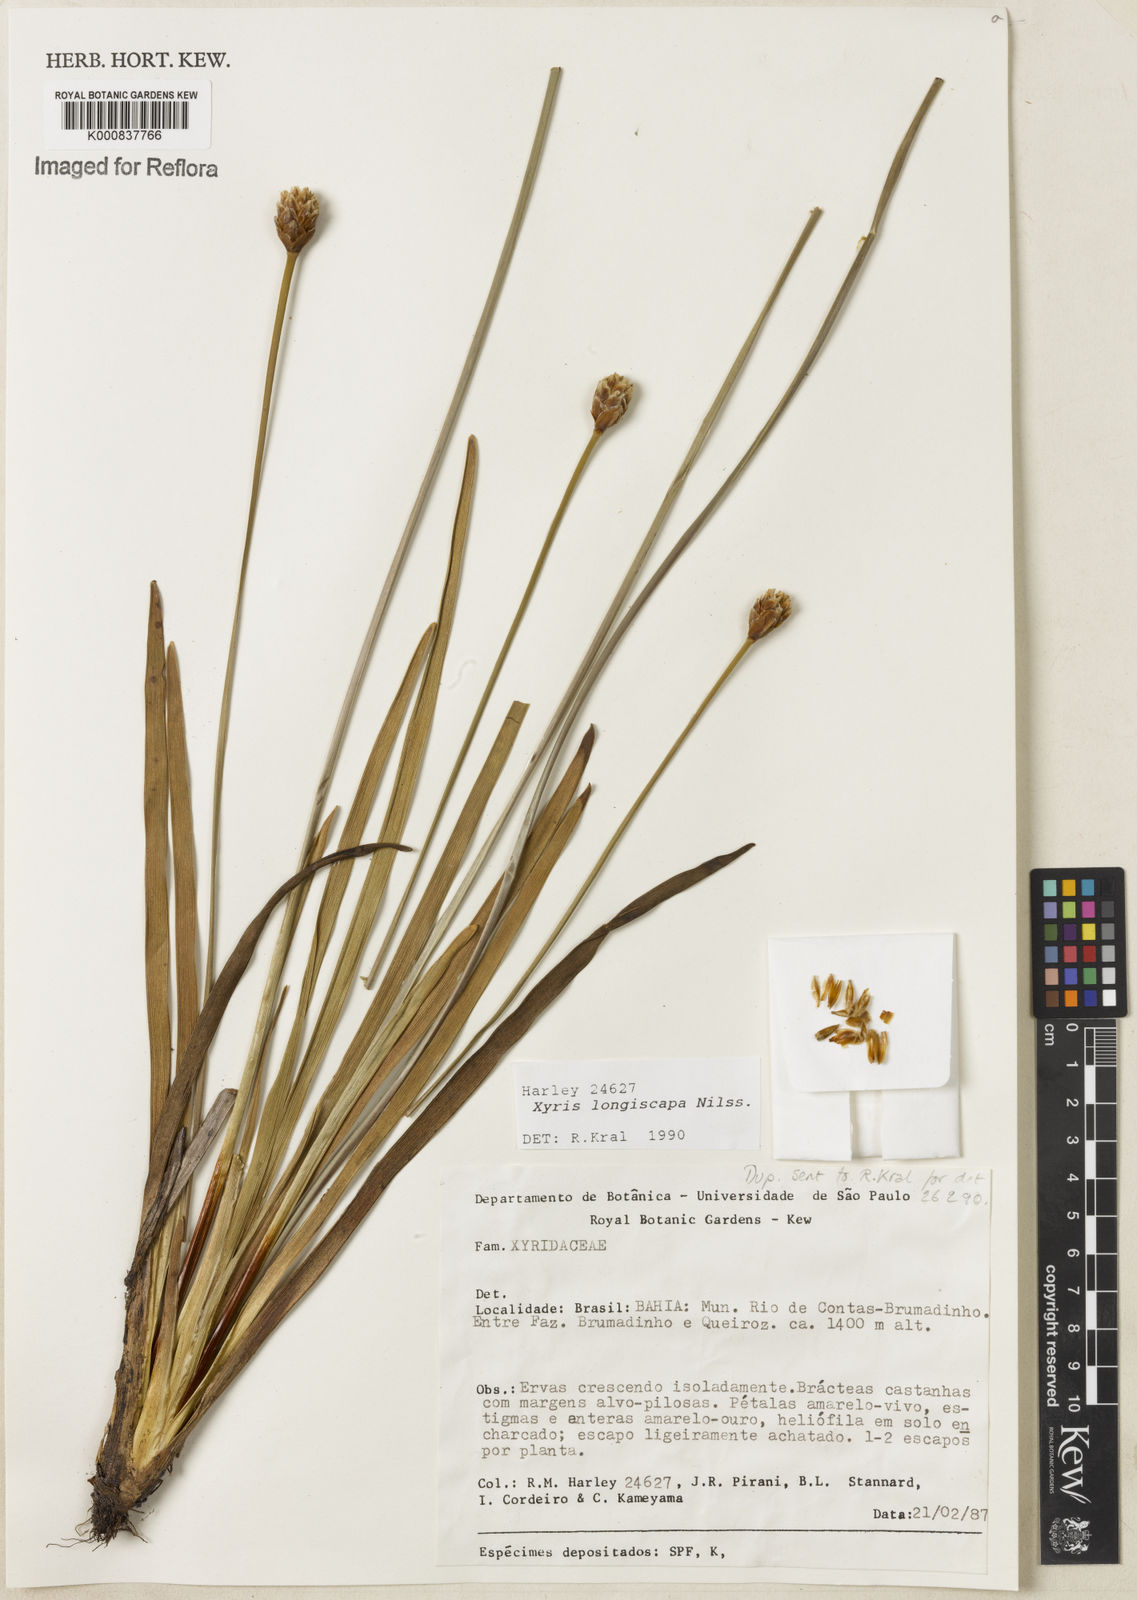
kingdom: Plantae
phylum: Tracheophyta
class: Liliopsida
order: Poales
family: Xyridaceae
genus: Xyris
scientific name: Xyris
